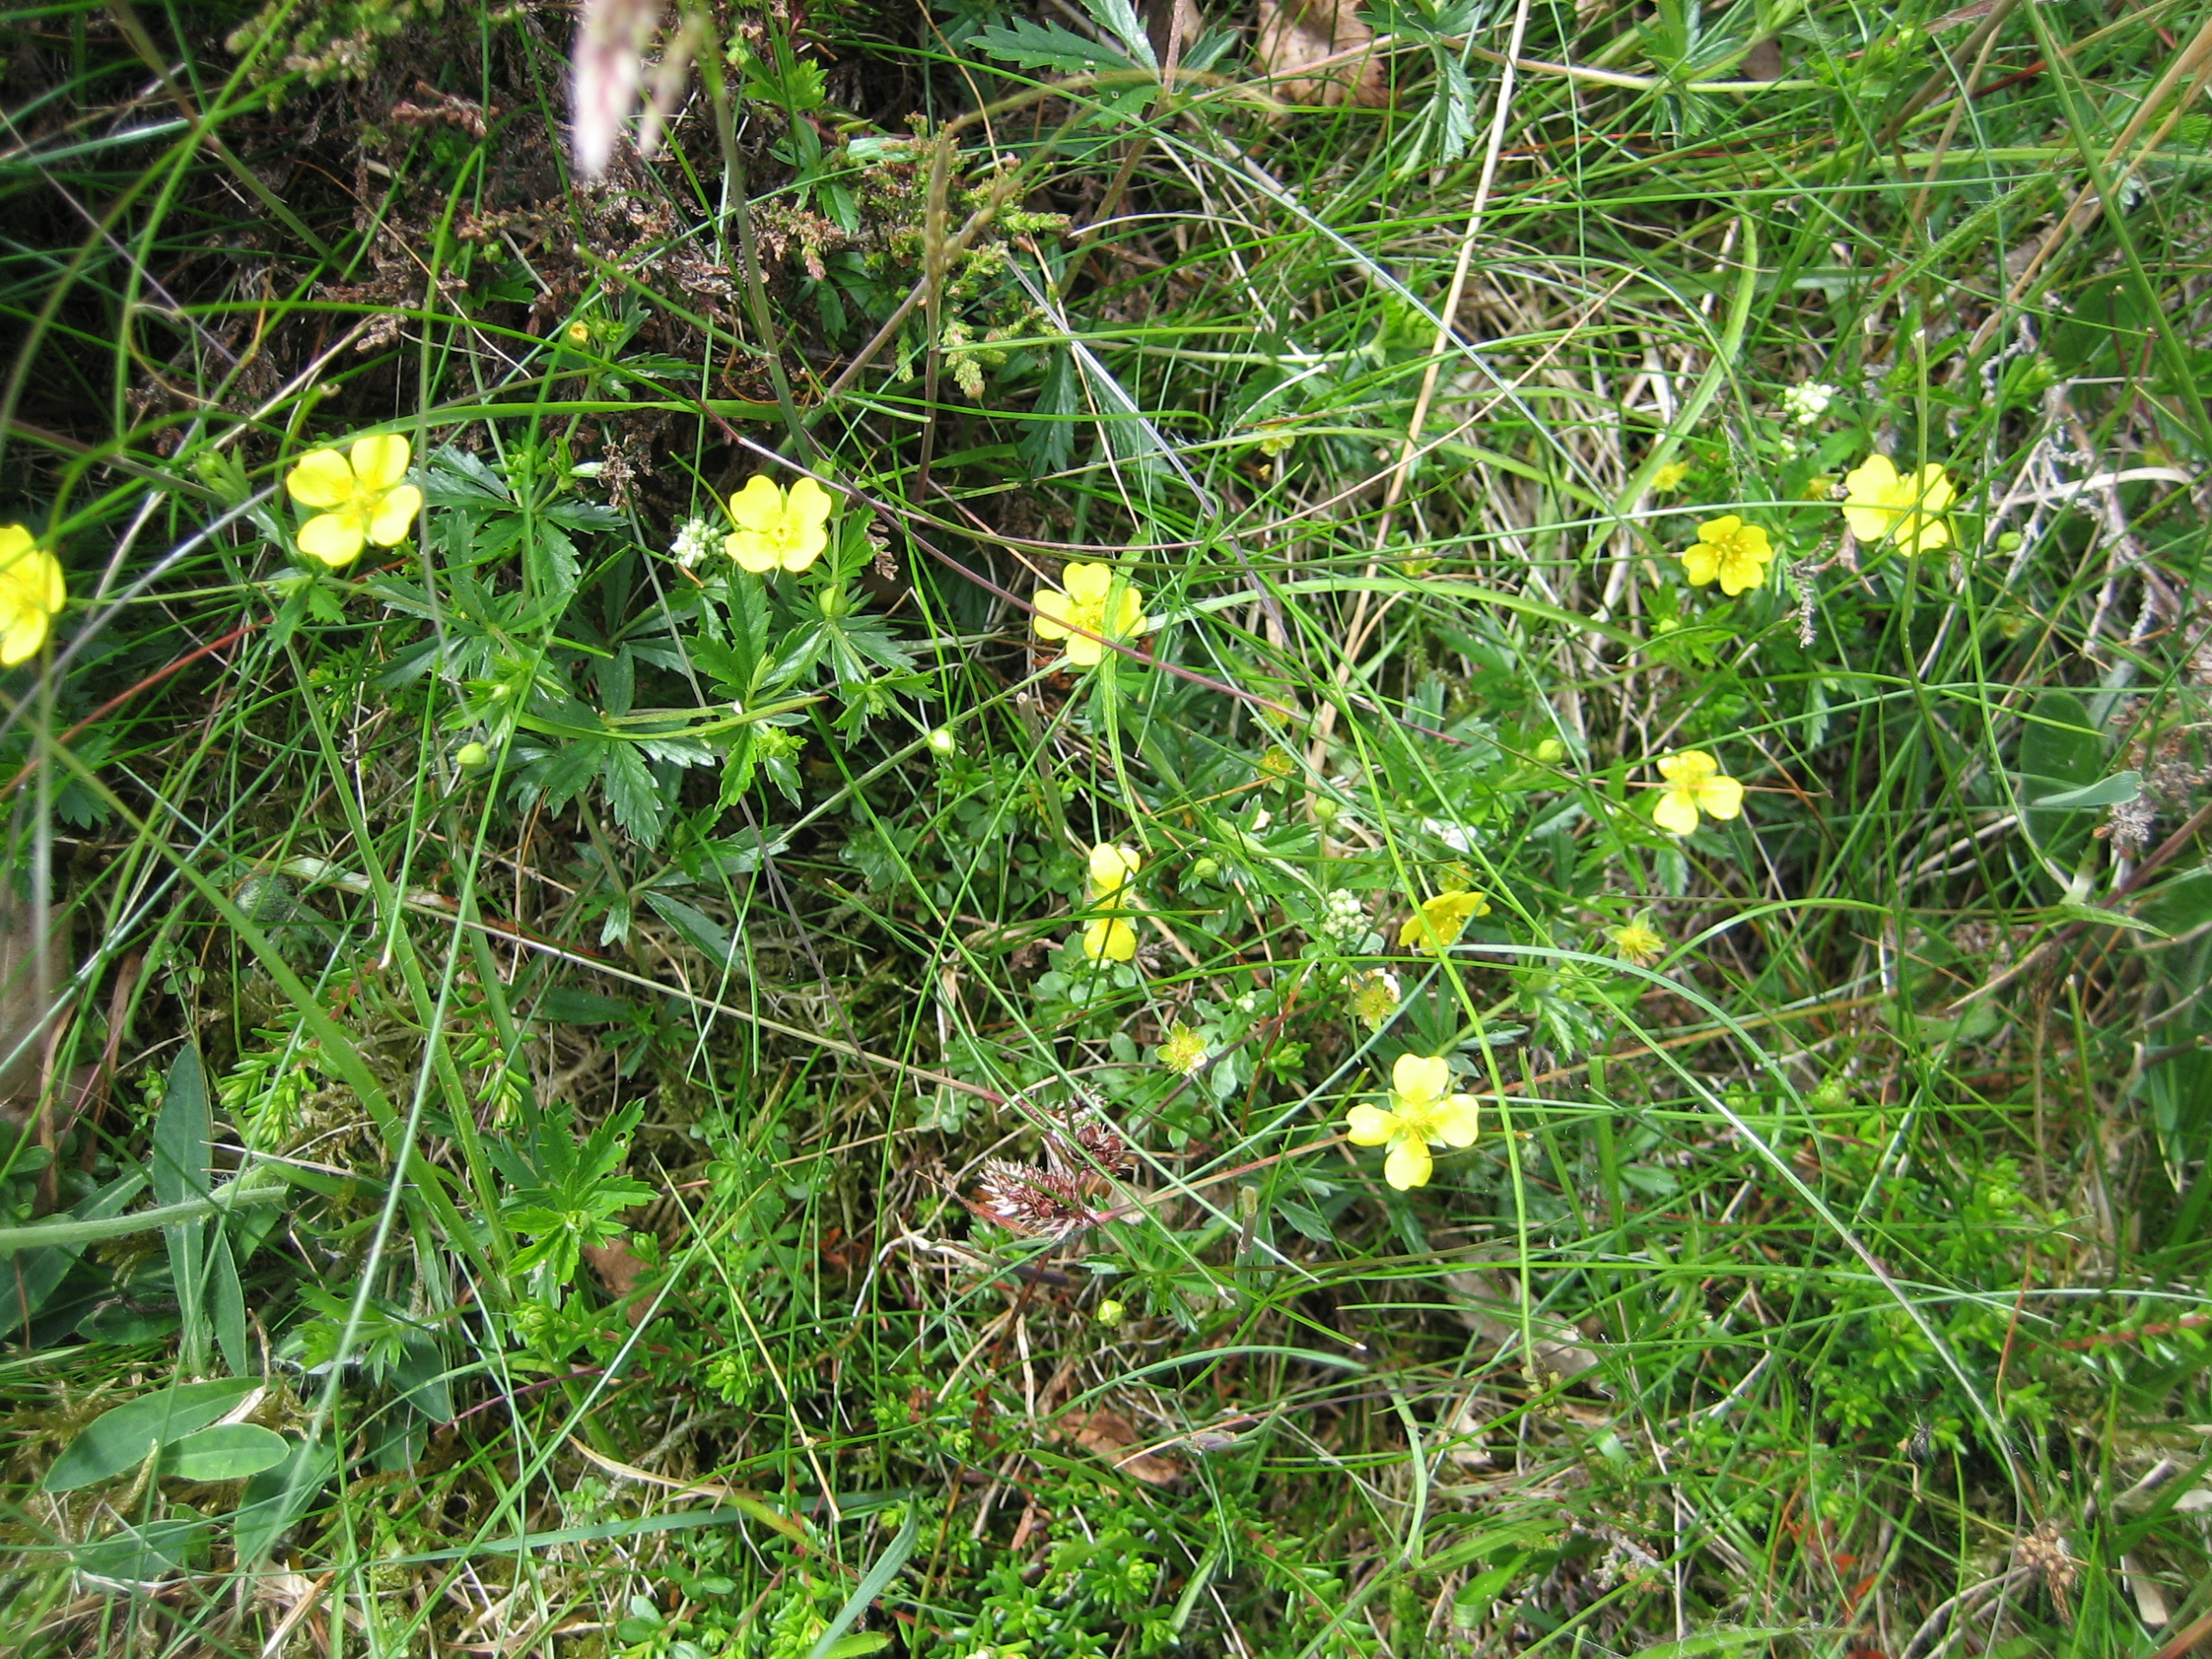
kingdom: Plantae
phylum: Tracheophyta
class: Magnoliopsida
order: Rosales
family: Rosaceae
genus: Potentilla
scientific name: Potentilla erecta
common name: Tormentil
